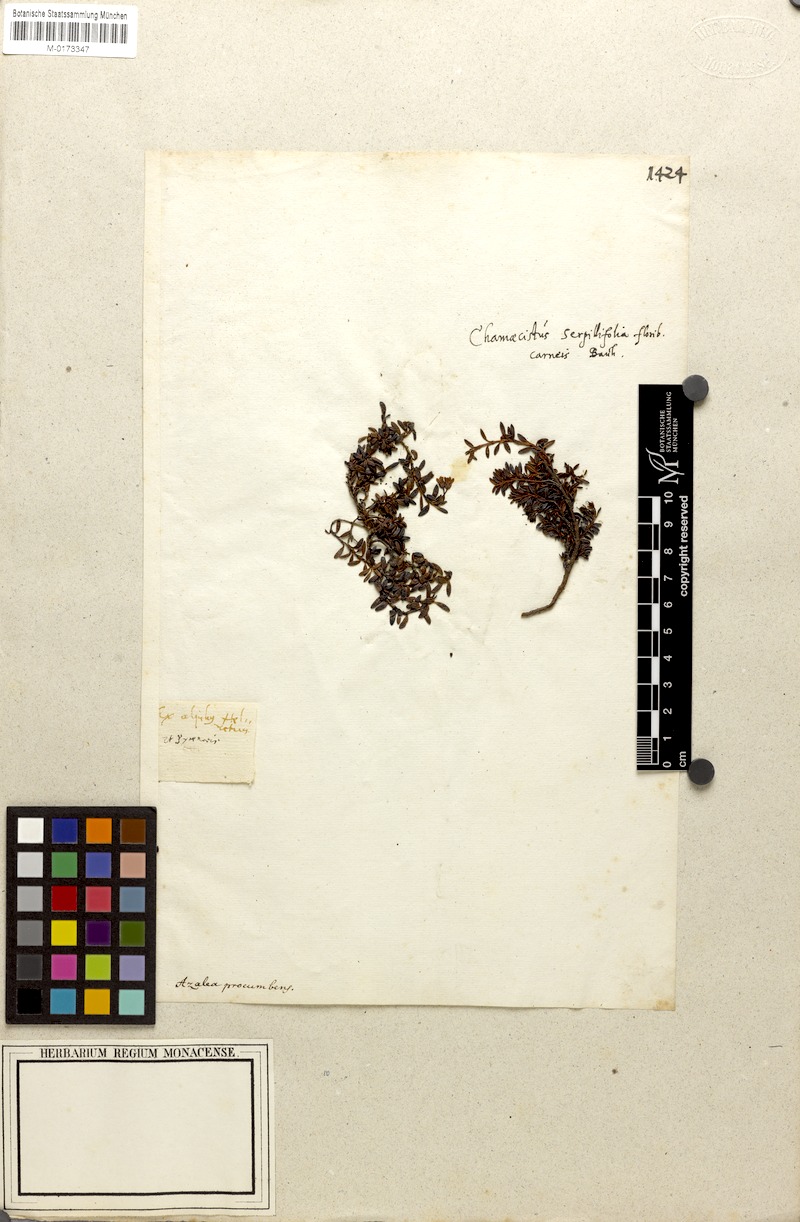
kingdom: Plantae
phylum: Tracheophyta
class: Magnoliopsida
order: Ericales
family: Ericaceae
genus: Kalmia
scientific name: Kalmia procumbens
